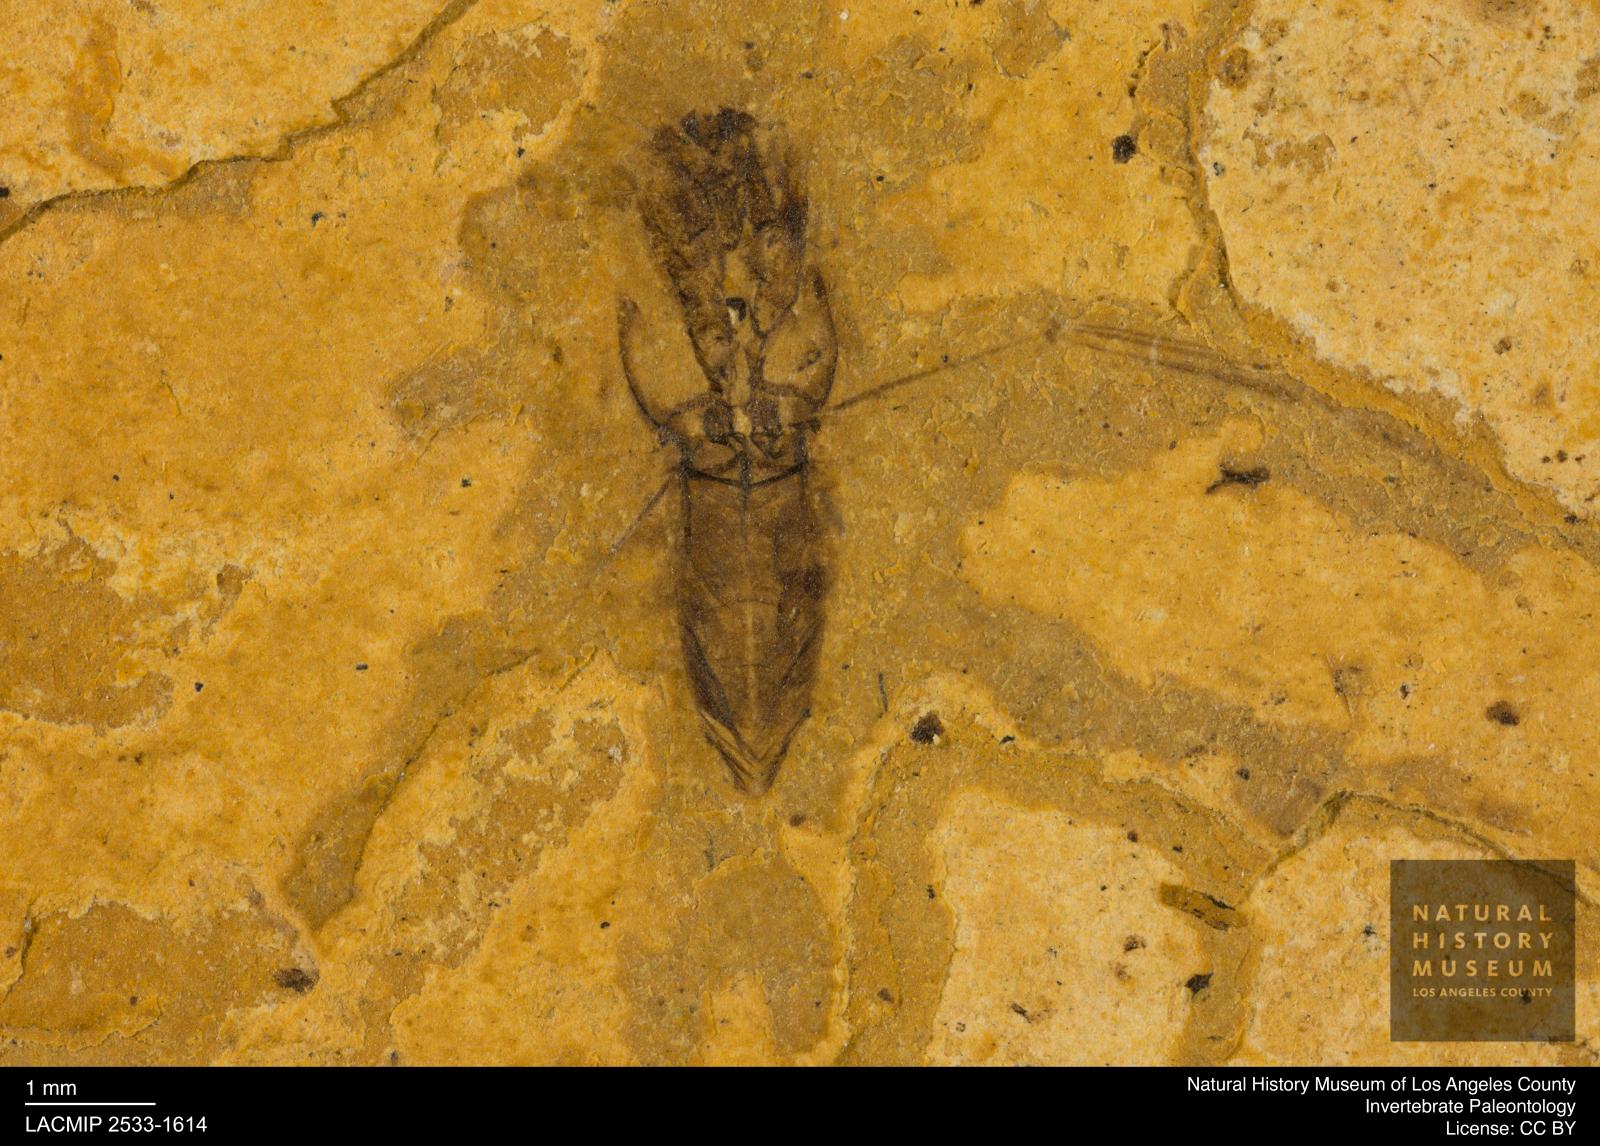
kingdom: Animalia
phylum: Arthropoda
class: Insecta
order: Hemiptera
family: Notonectidae
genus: Notonecta
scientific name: Notonecta
